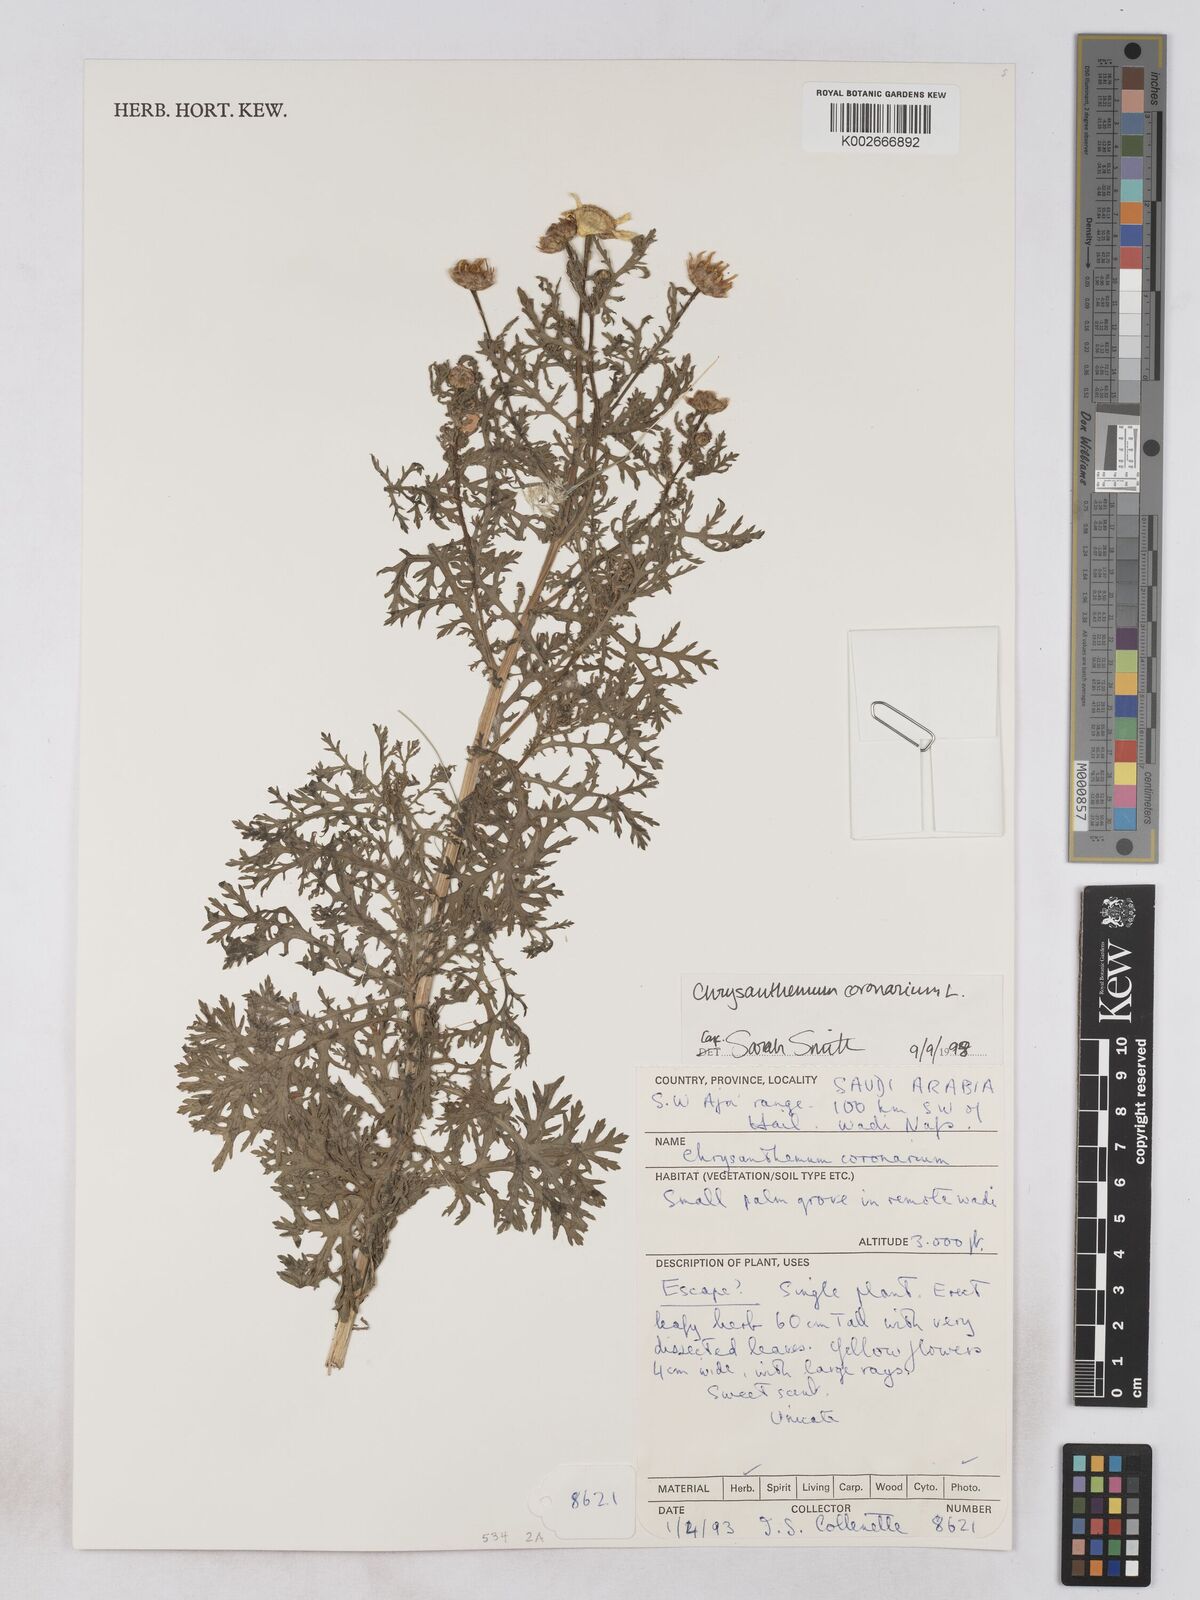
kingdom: Plantae
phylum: Tracheophyta
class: Magnoliopsida
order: Asterales
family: Asteraceae
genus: Glebionis
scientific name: Glebionis coronaria
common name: Crowndaisy
